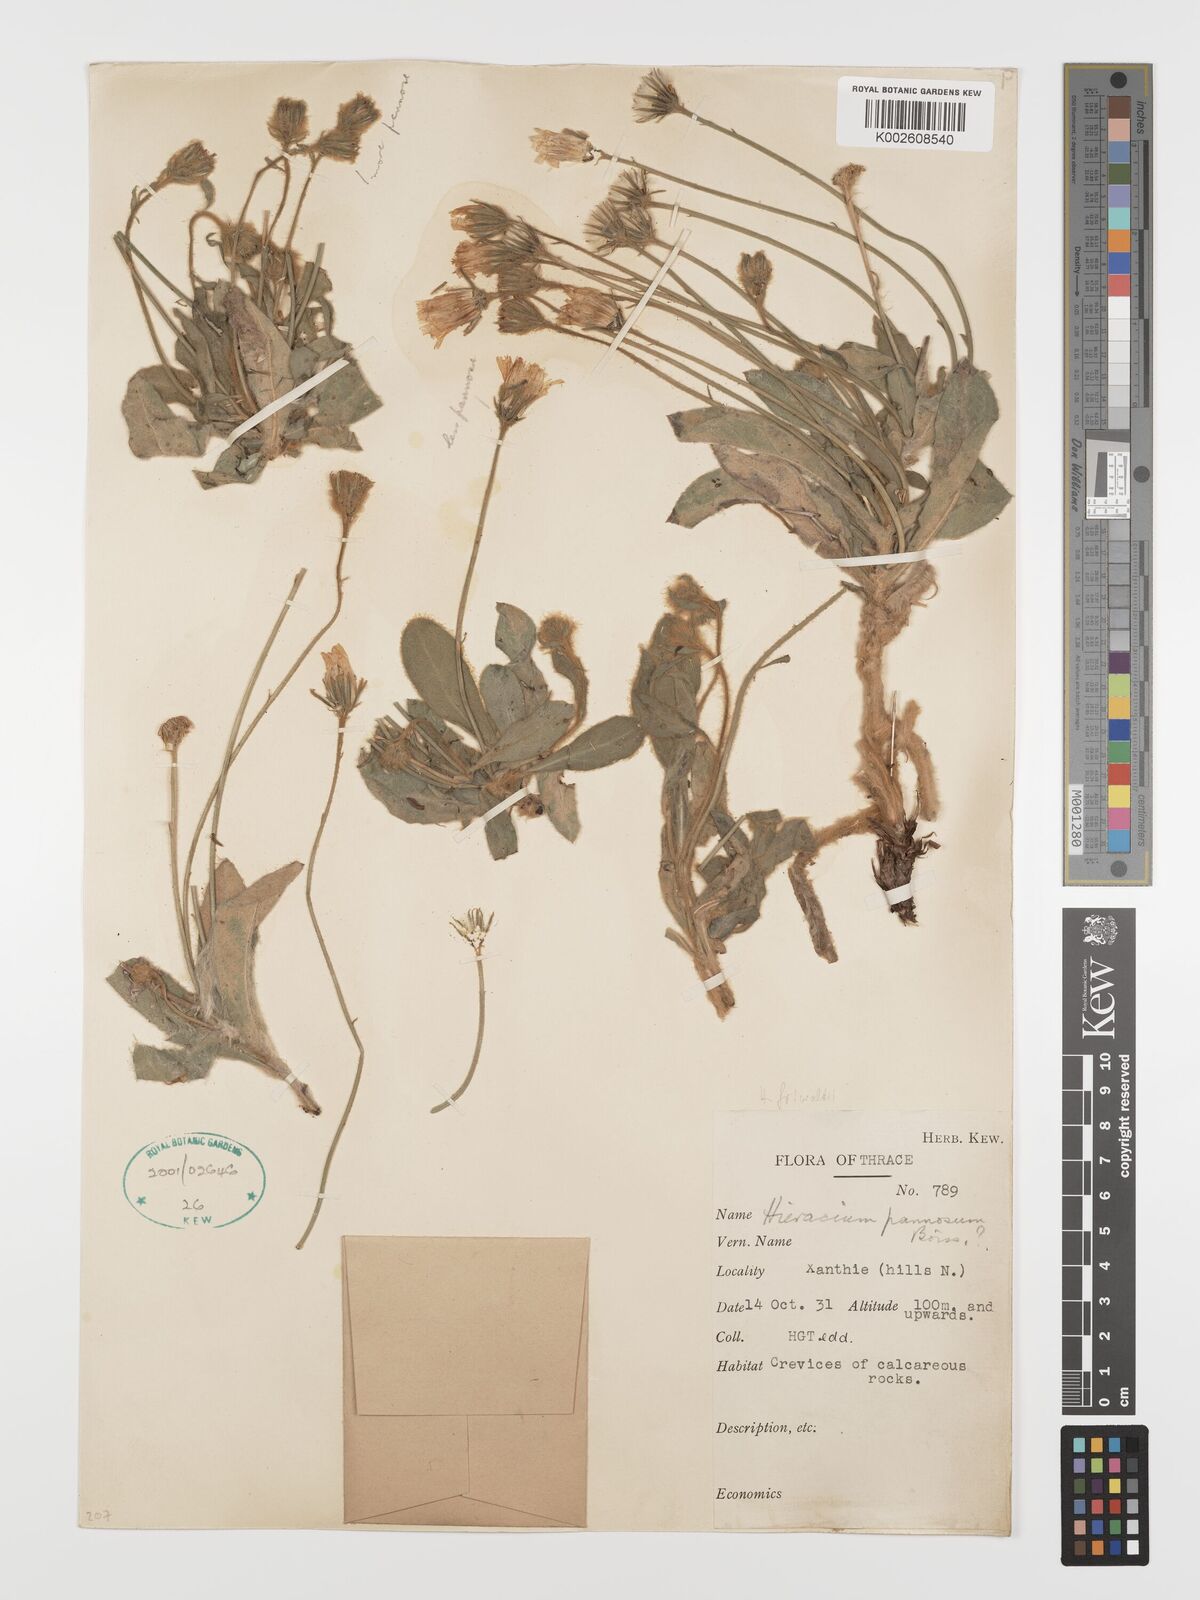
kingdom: Plantae
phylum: Tracheophyta
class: Magnoliopsida
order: Asterales
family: Asteraceae
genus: Hieracium
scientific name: Hieracium pannosum
